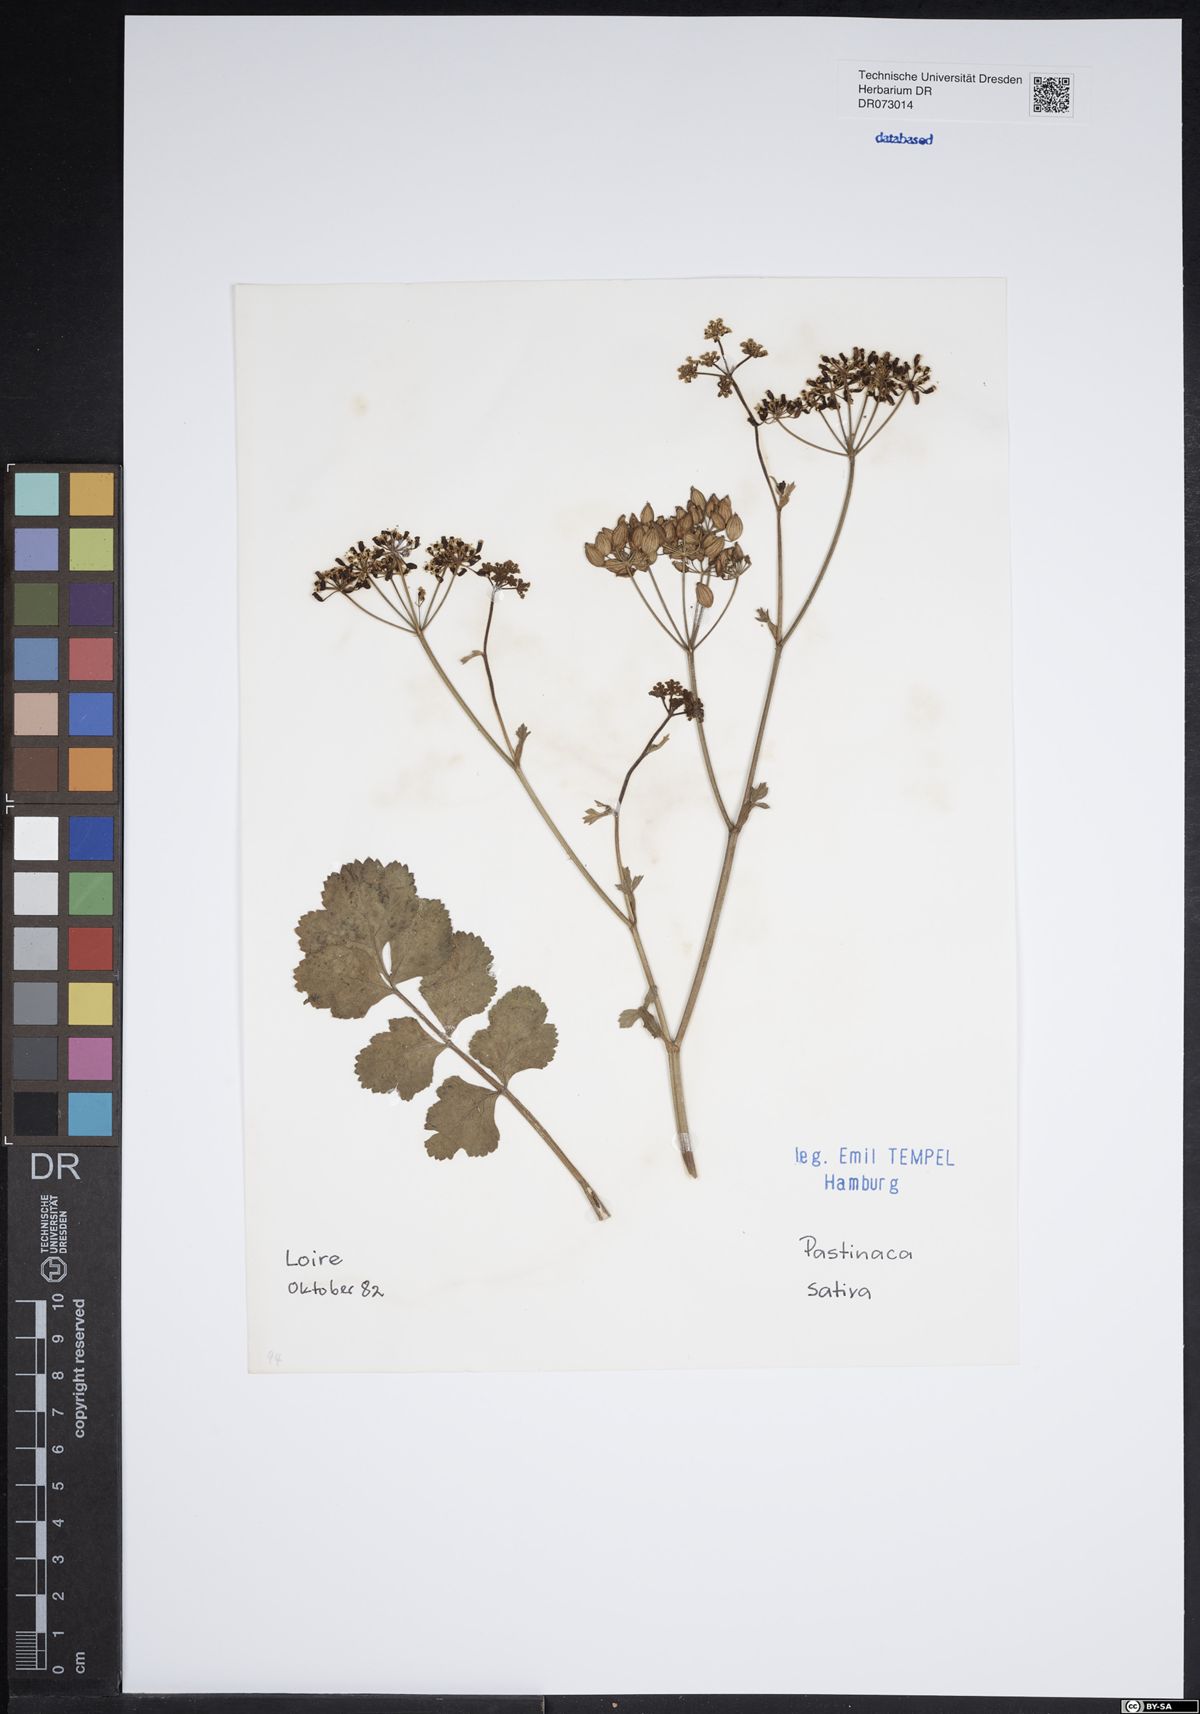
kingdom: Plantae
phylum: Tracheophyta
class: Magnoliopsida
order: Apiales
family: Apiaceae
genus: Crithmum
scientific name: Crithmum maritimum
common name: Rock samphire
